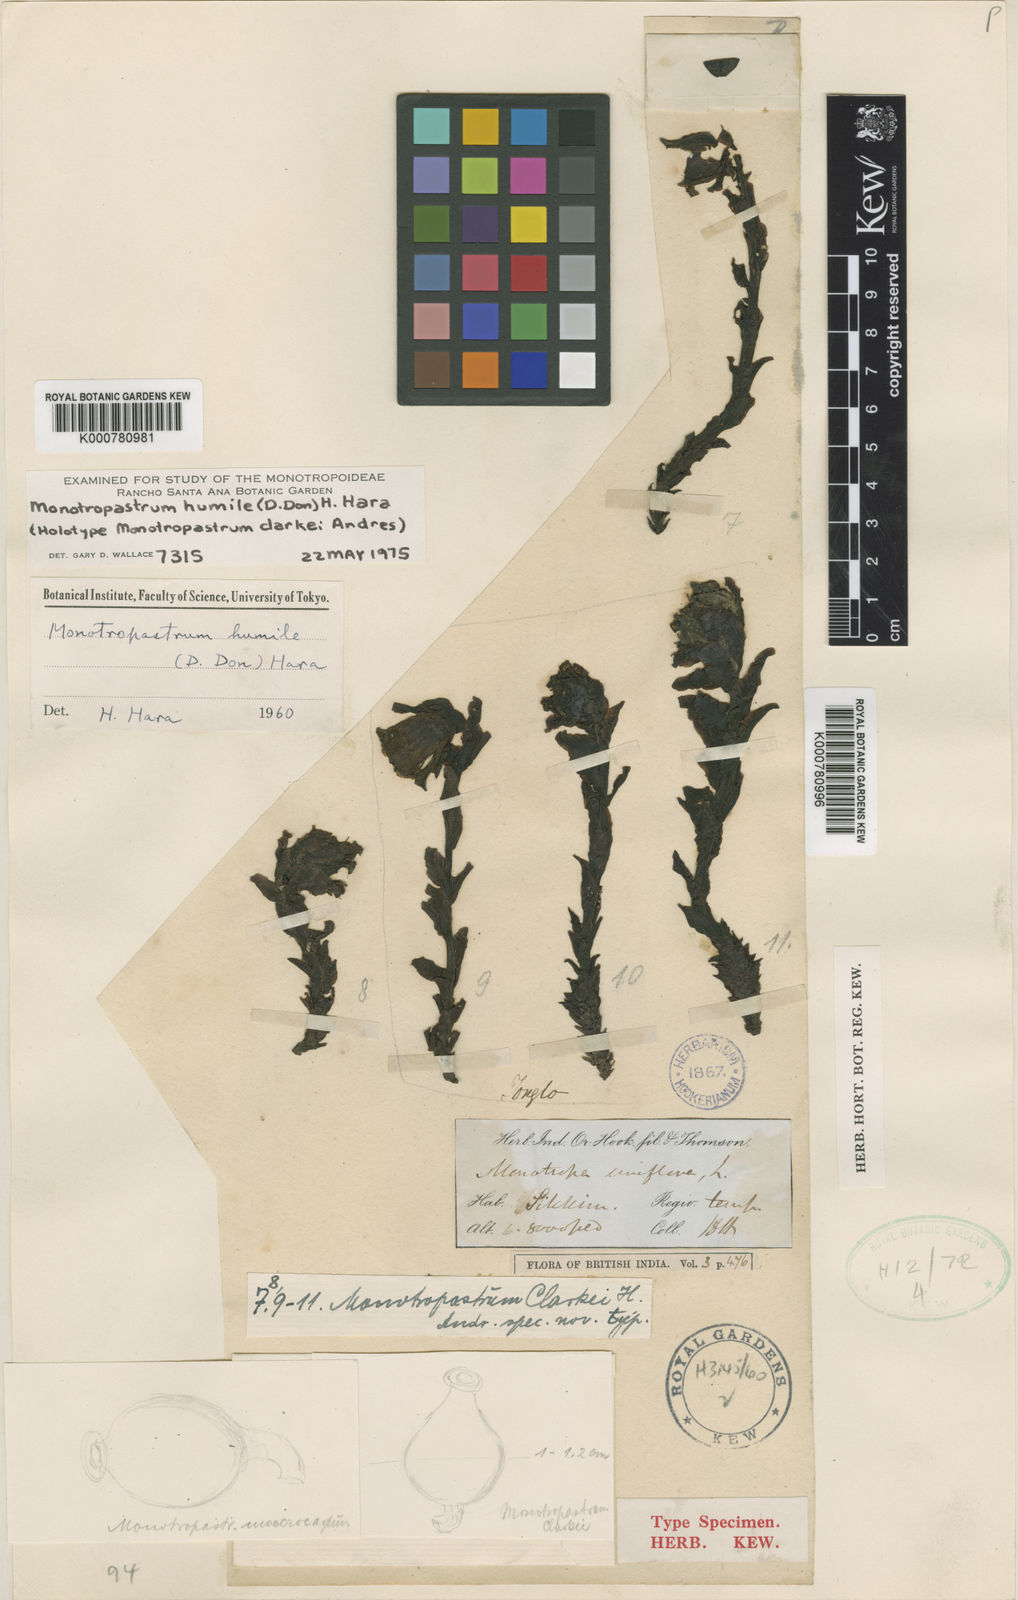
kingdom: Plantae
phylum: Tracheophyta
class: Magnoliopsida
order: Ericales
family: Ericaceae
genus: Monotropastrum
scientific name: Monotropastrum humile
